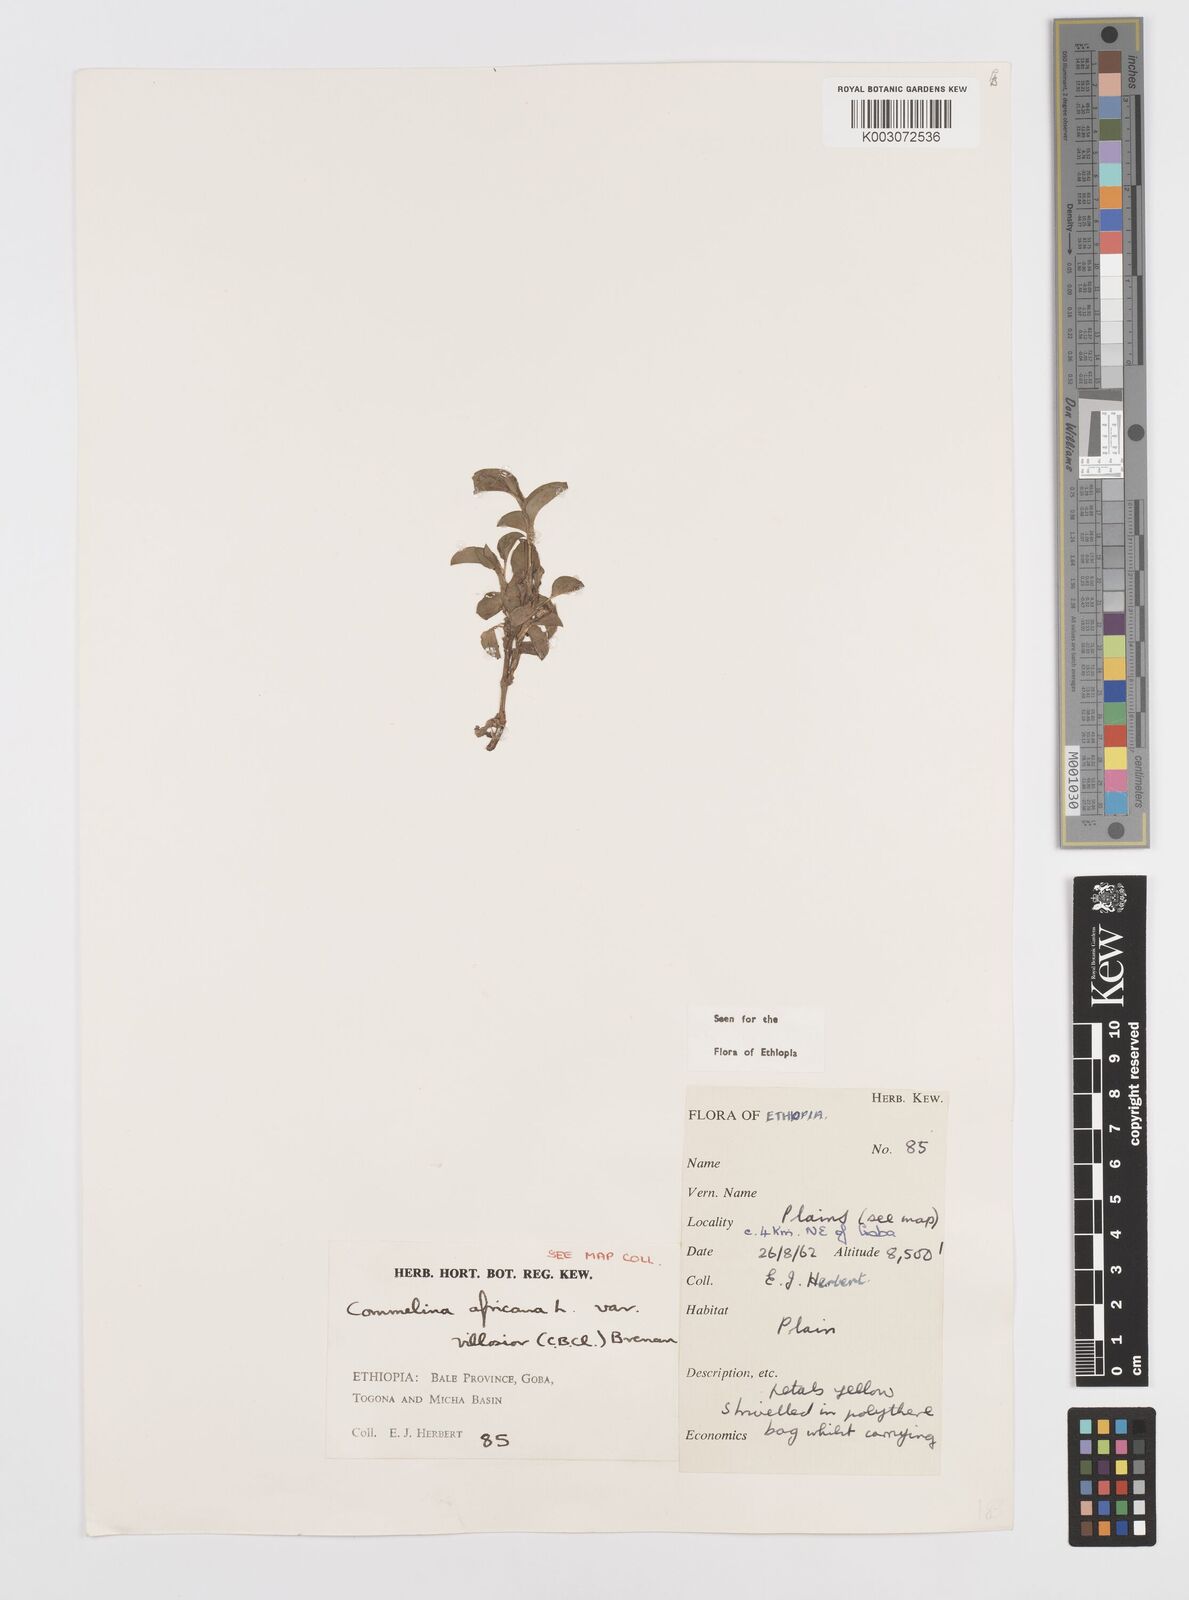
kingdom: Plantae
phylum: Tracheophyta
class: Liliopsida
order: Commelinales
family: Commelinaceae
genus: Commelina
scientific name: Commelina africana
